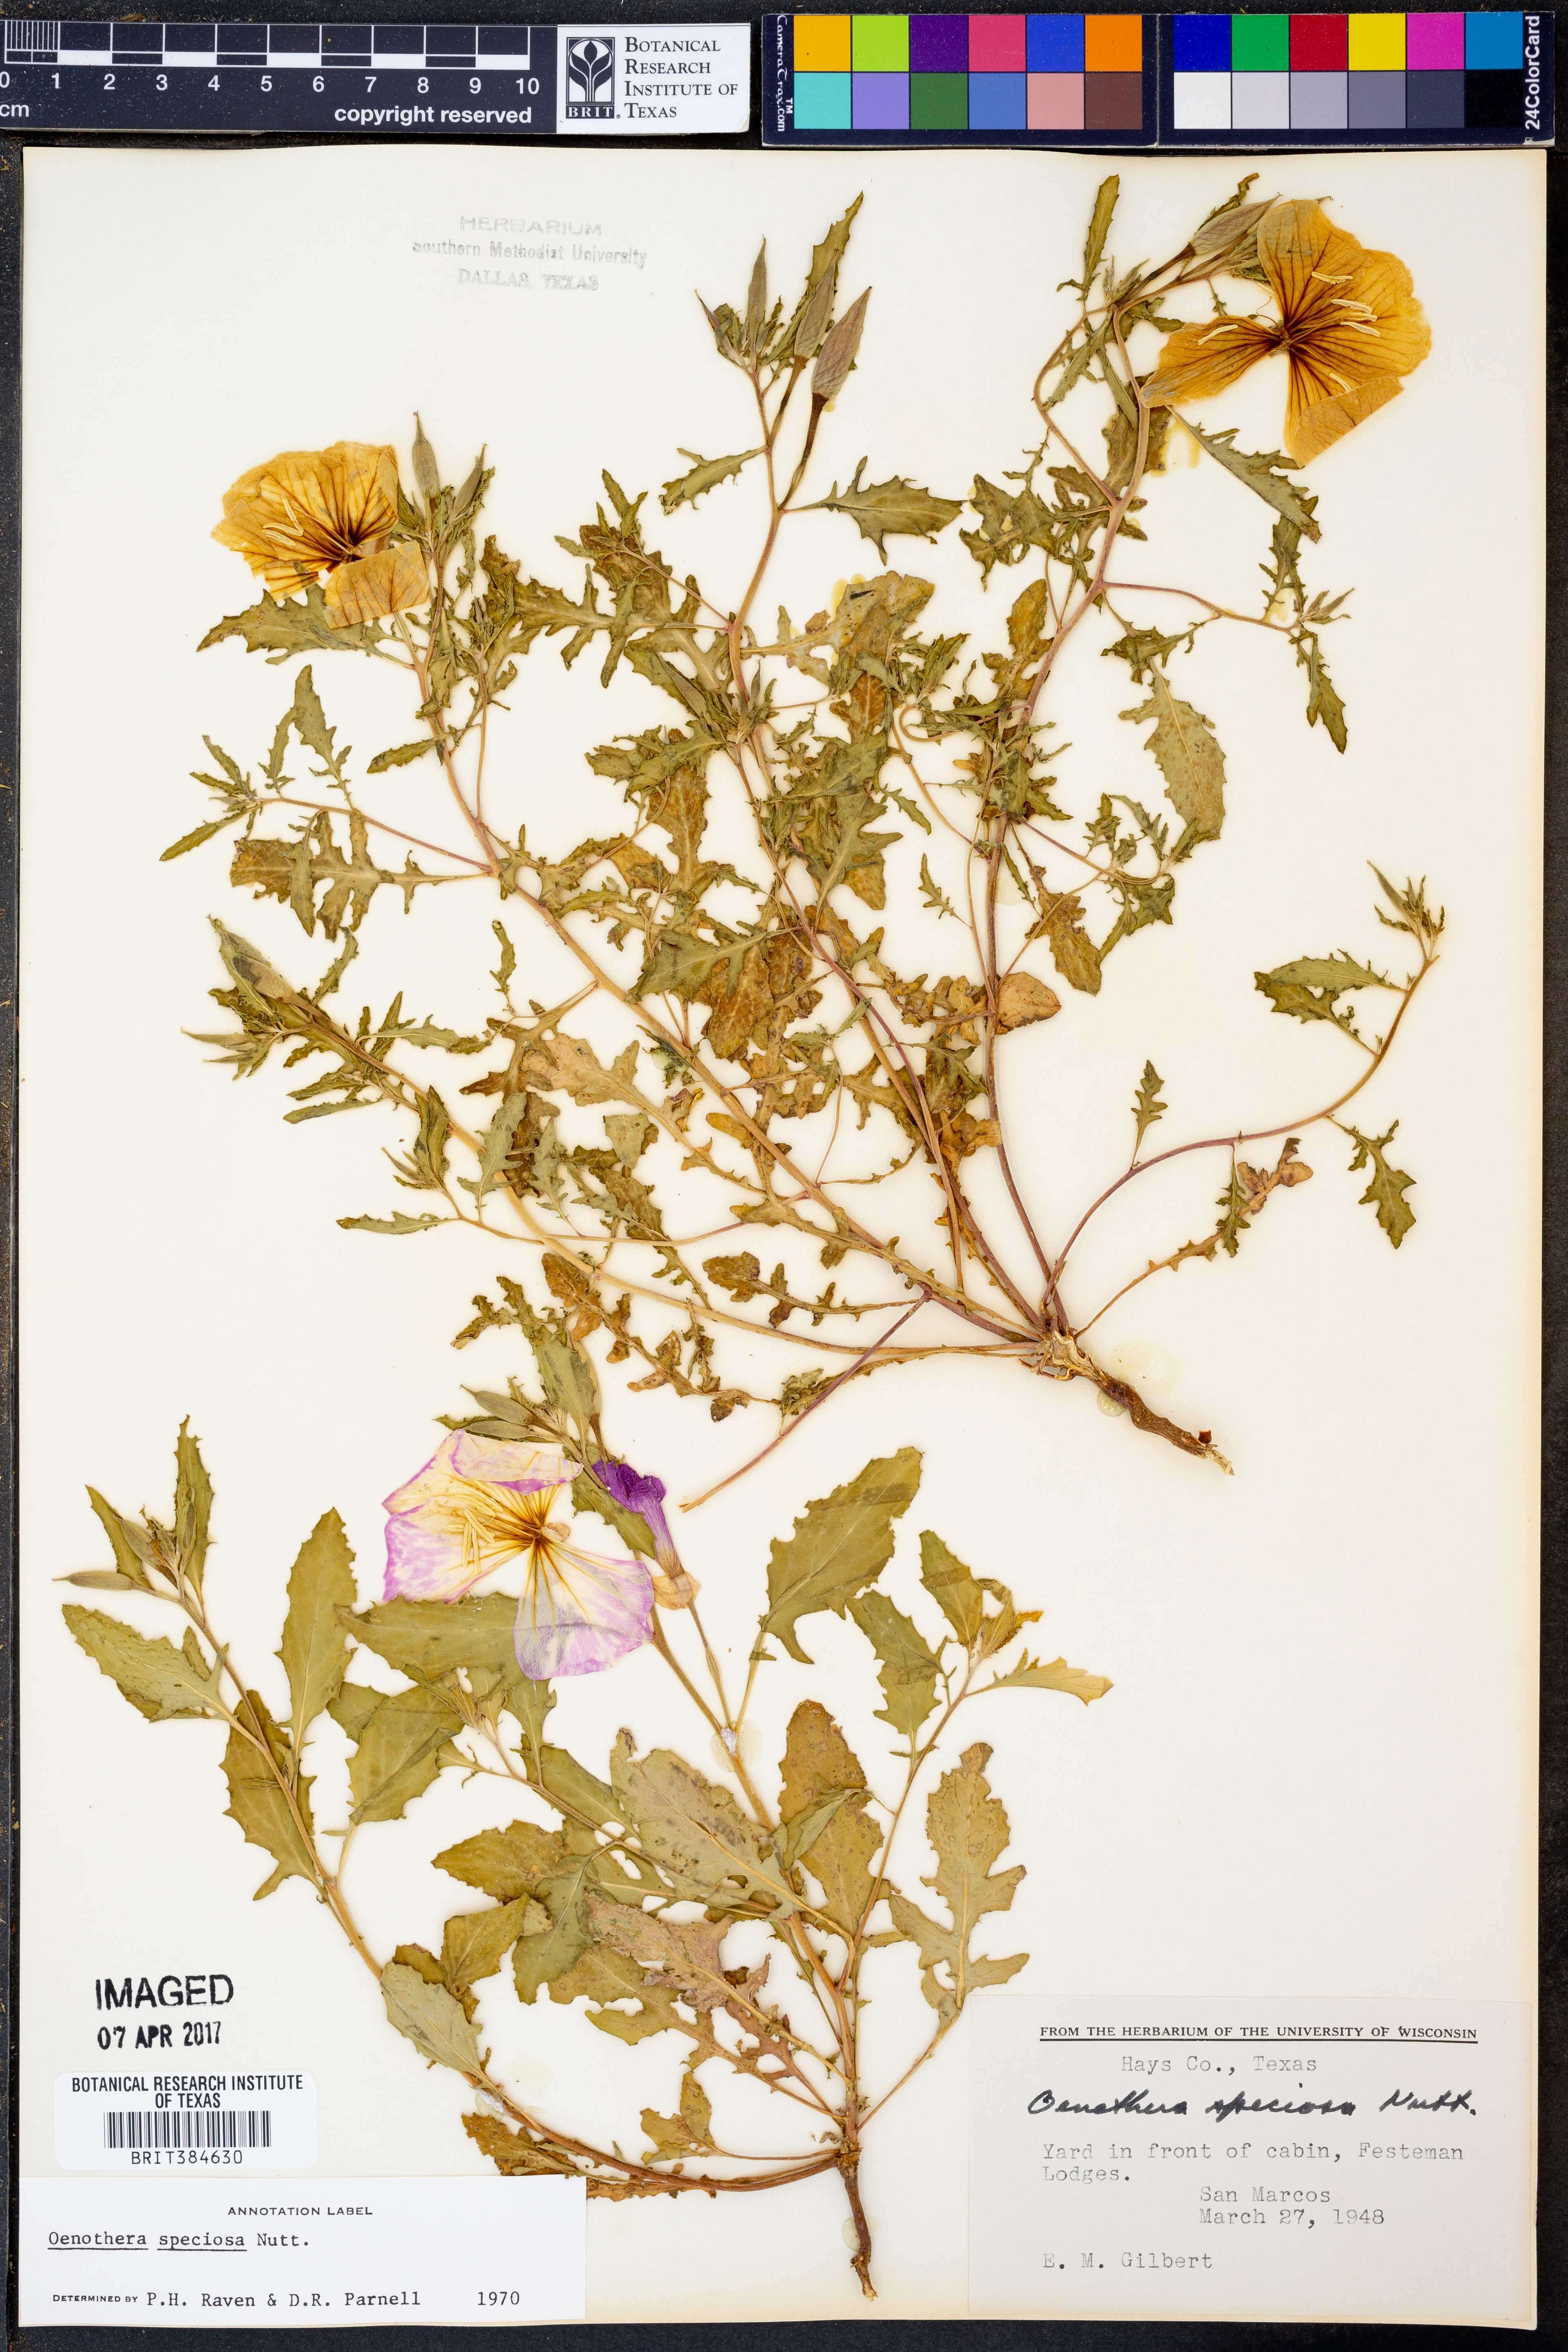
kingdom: Plantae
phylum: Tracheophyta
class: Magnoliopsida
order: Myrtales
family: Onagraceae
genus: Oenothera
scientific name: Oenothera speciosa
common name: White evening-primrose
